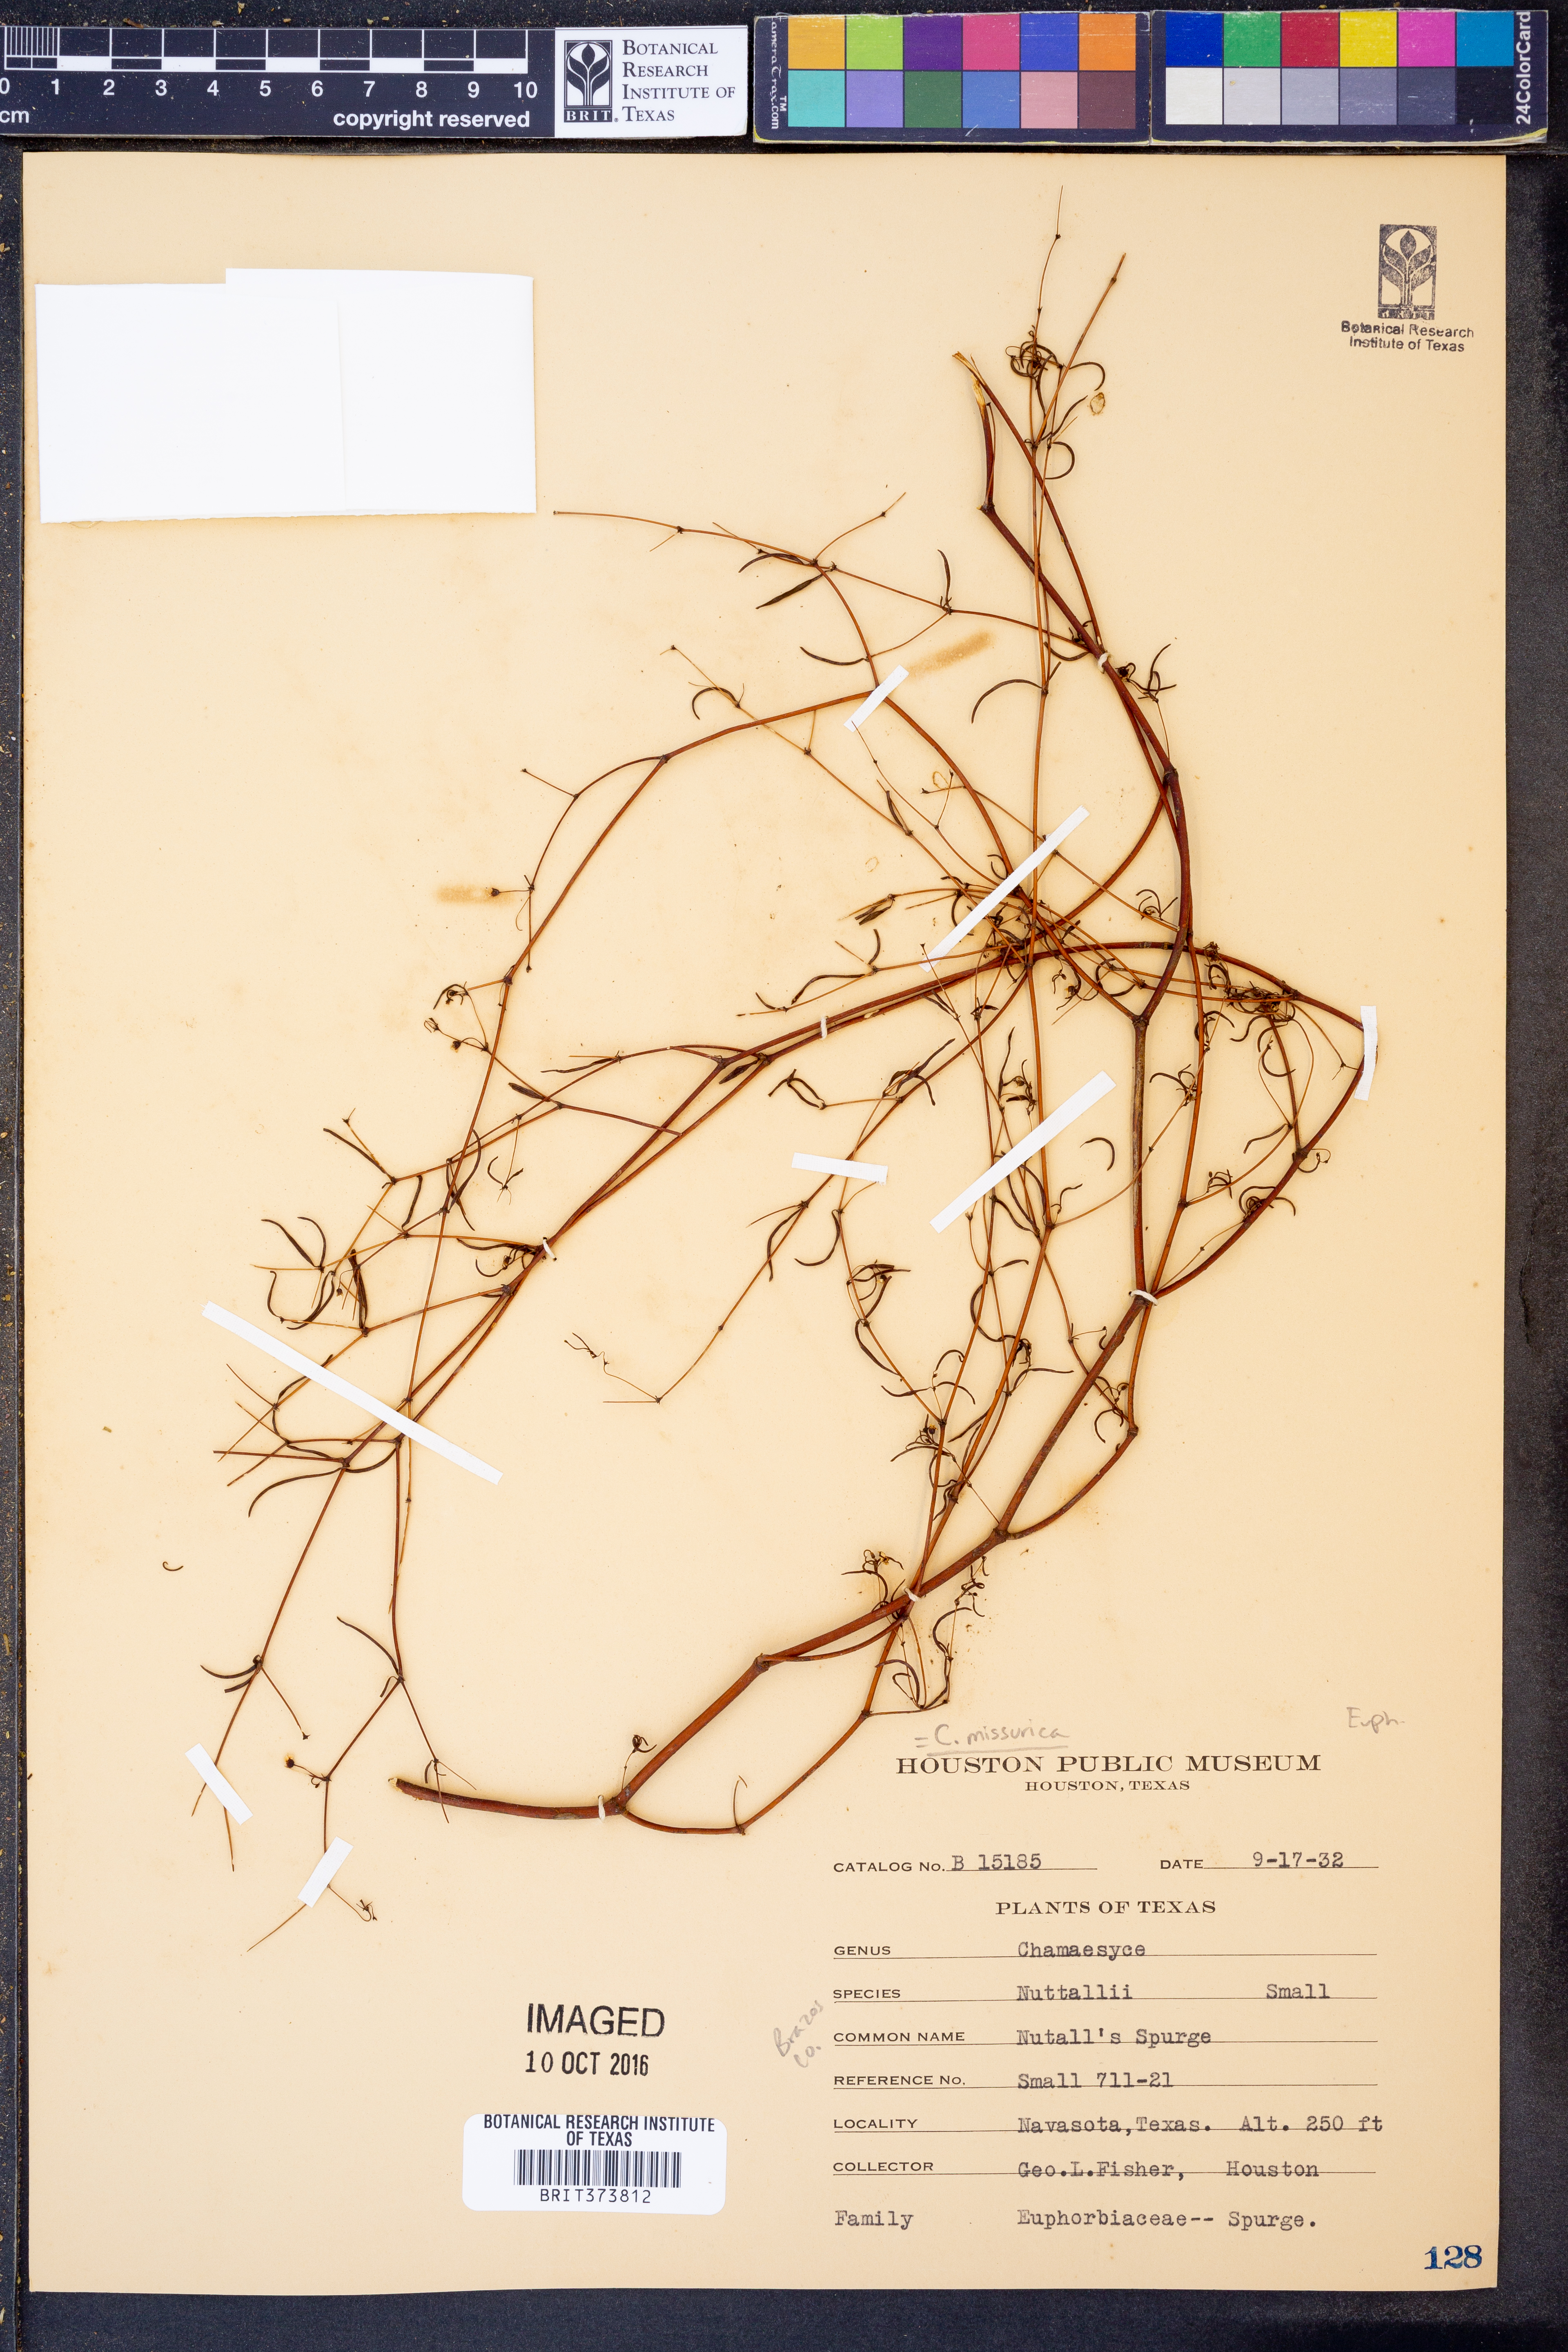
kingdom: Plantae
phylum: Tracheophyta
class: Magnoliopsida
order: Malpighiales
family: Euphorbiaceae
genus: Euphorbia
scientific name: Euphorbia missurica
